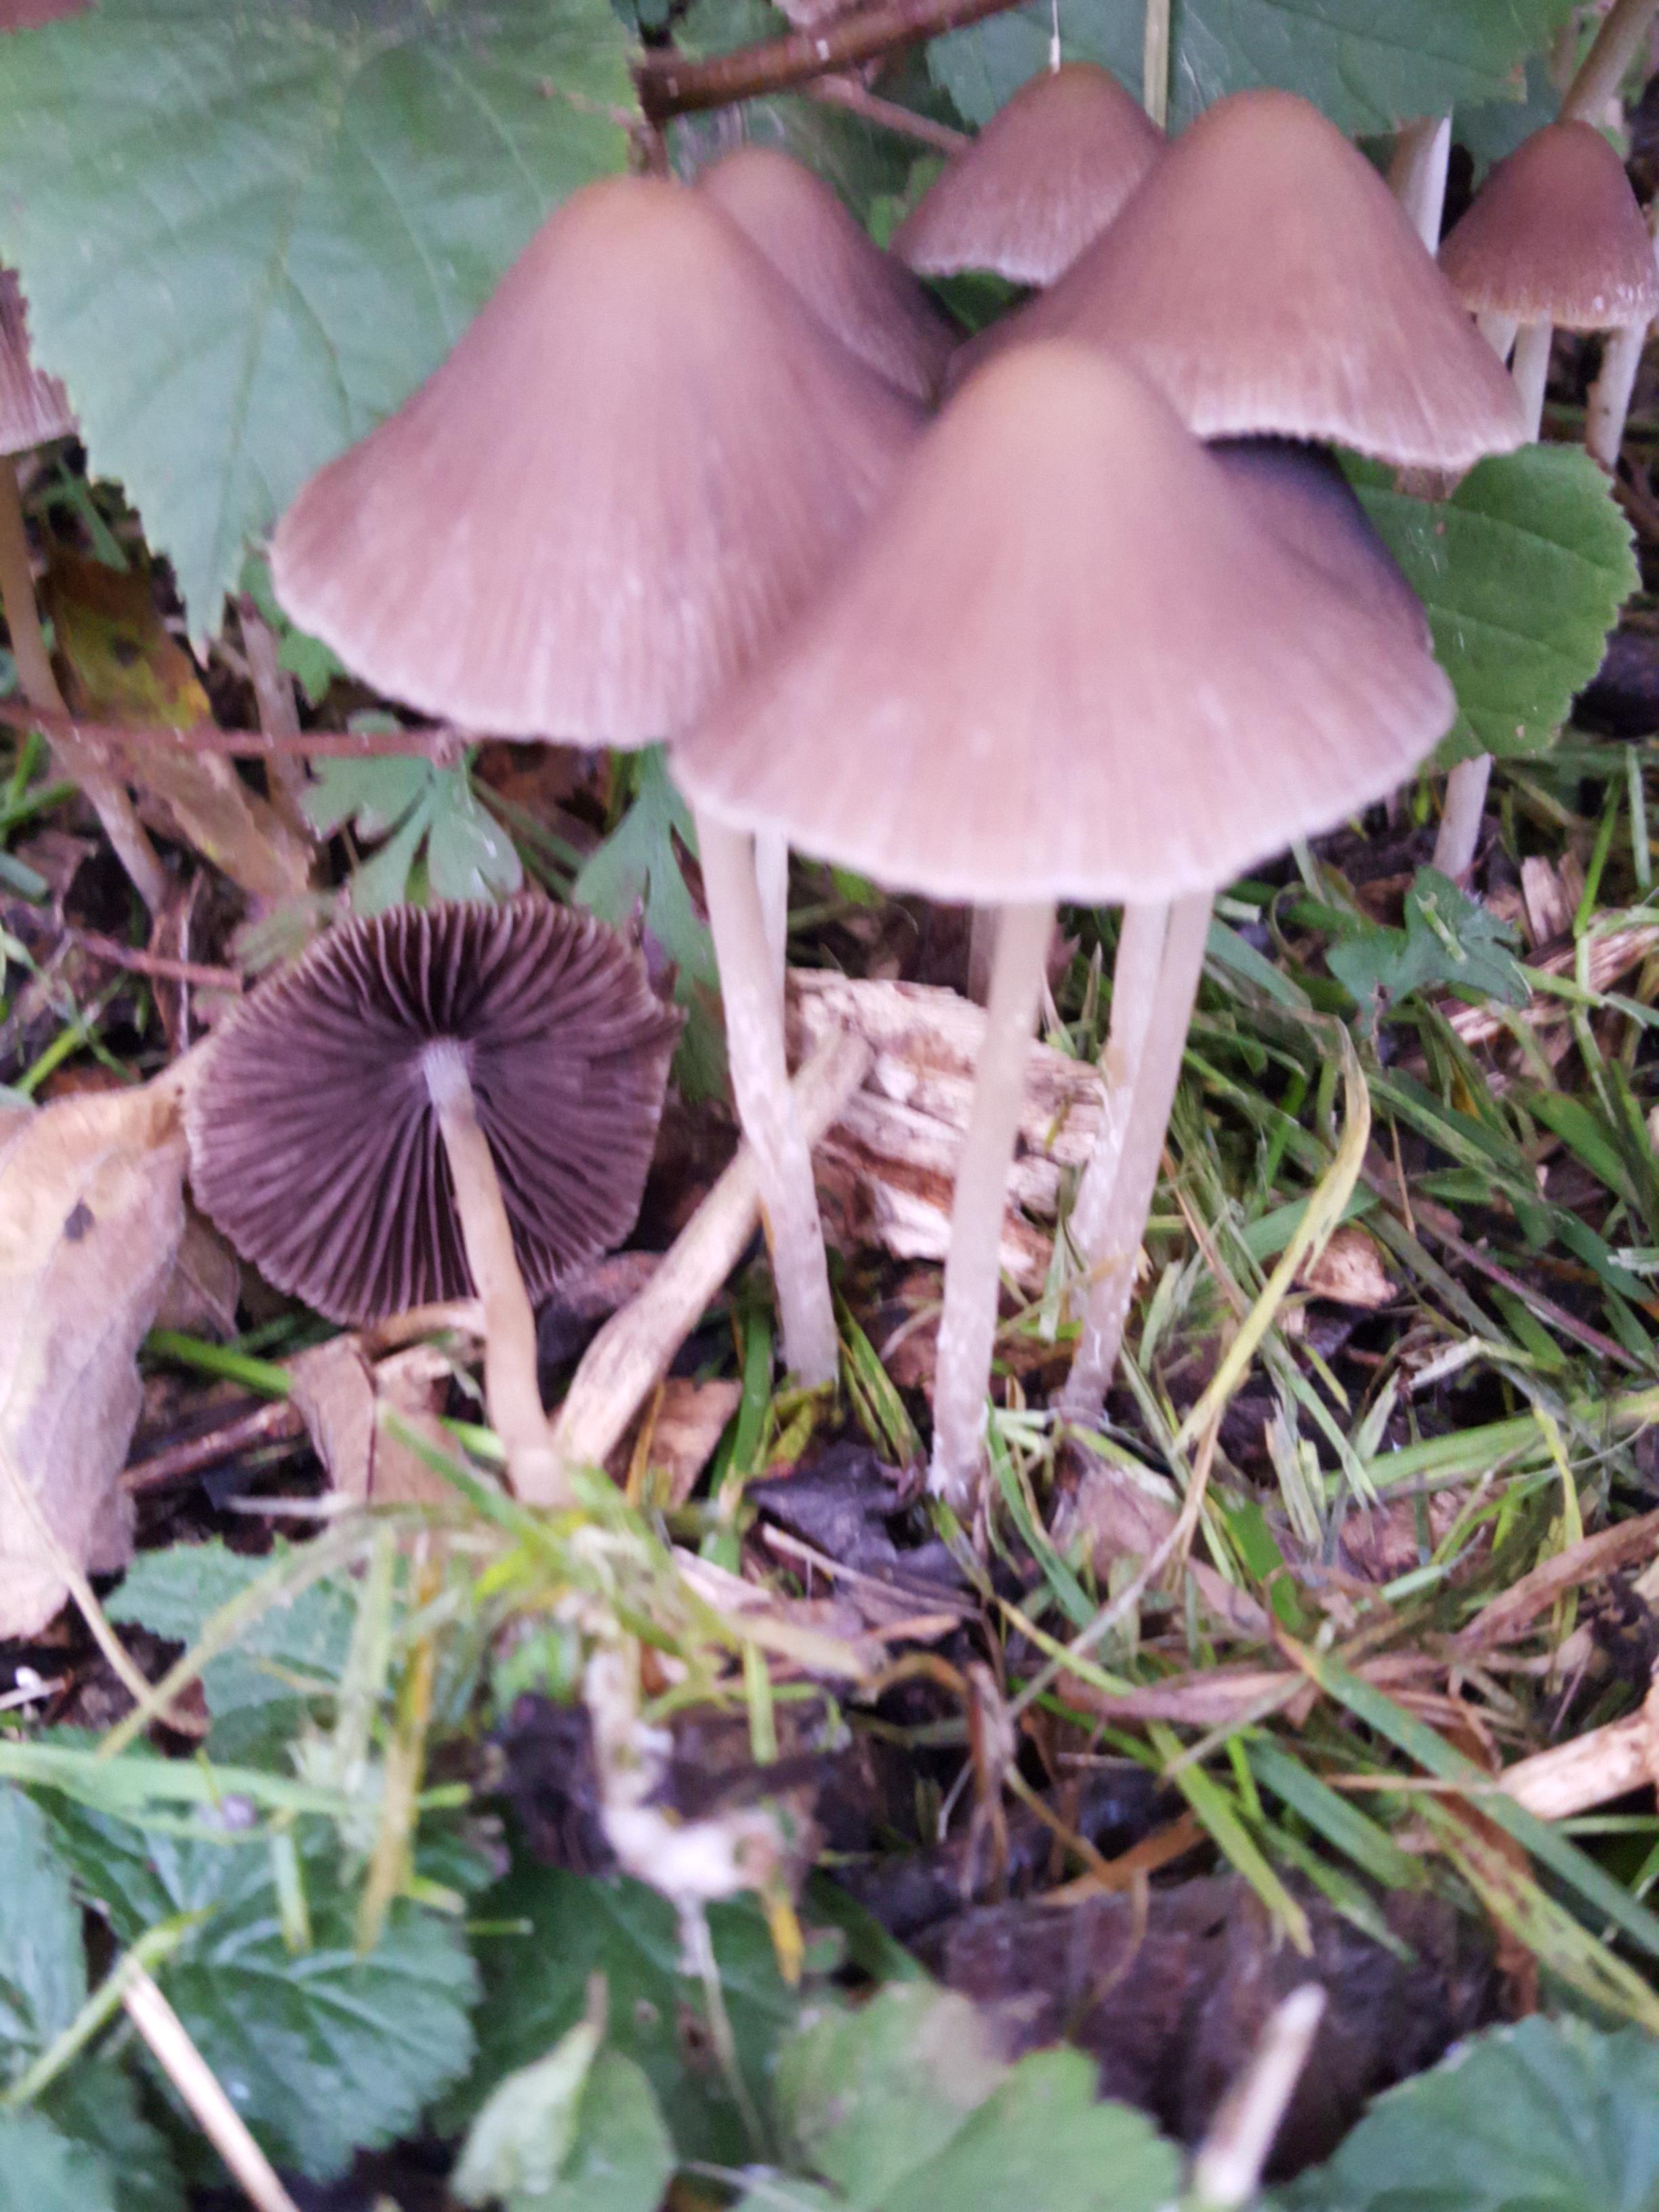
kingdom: Fungi
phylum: Basidiomycota
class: Agaricomycetes
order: Agaricales
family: Psathyrellaceae
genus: Psathyrella
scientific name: Psathyrella
